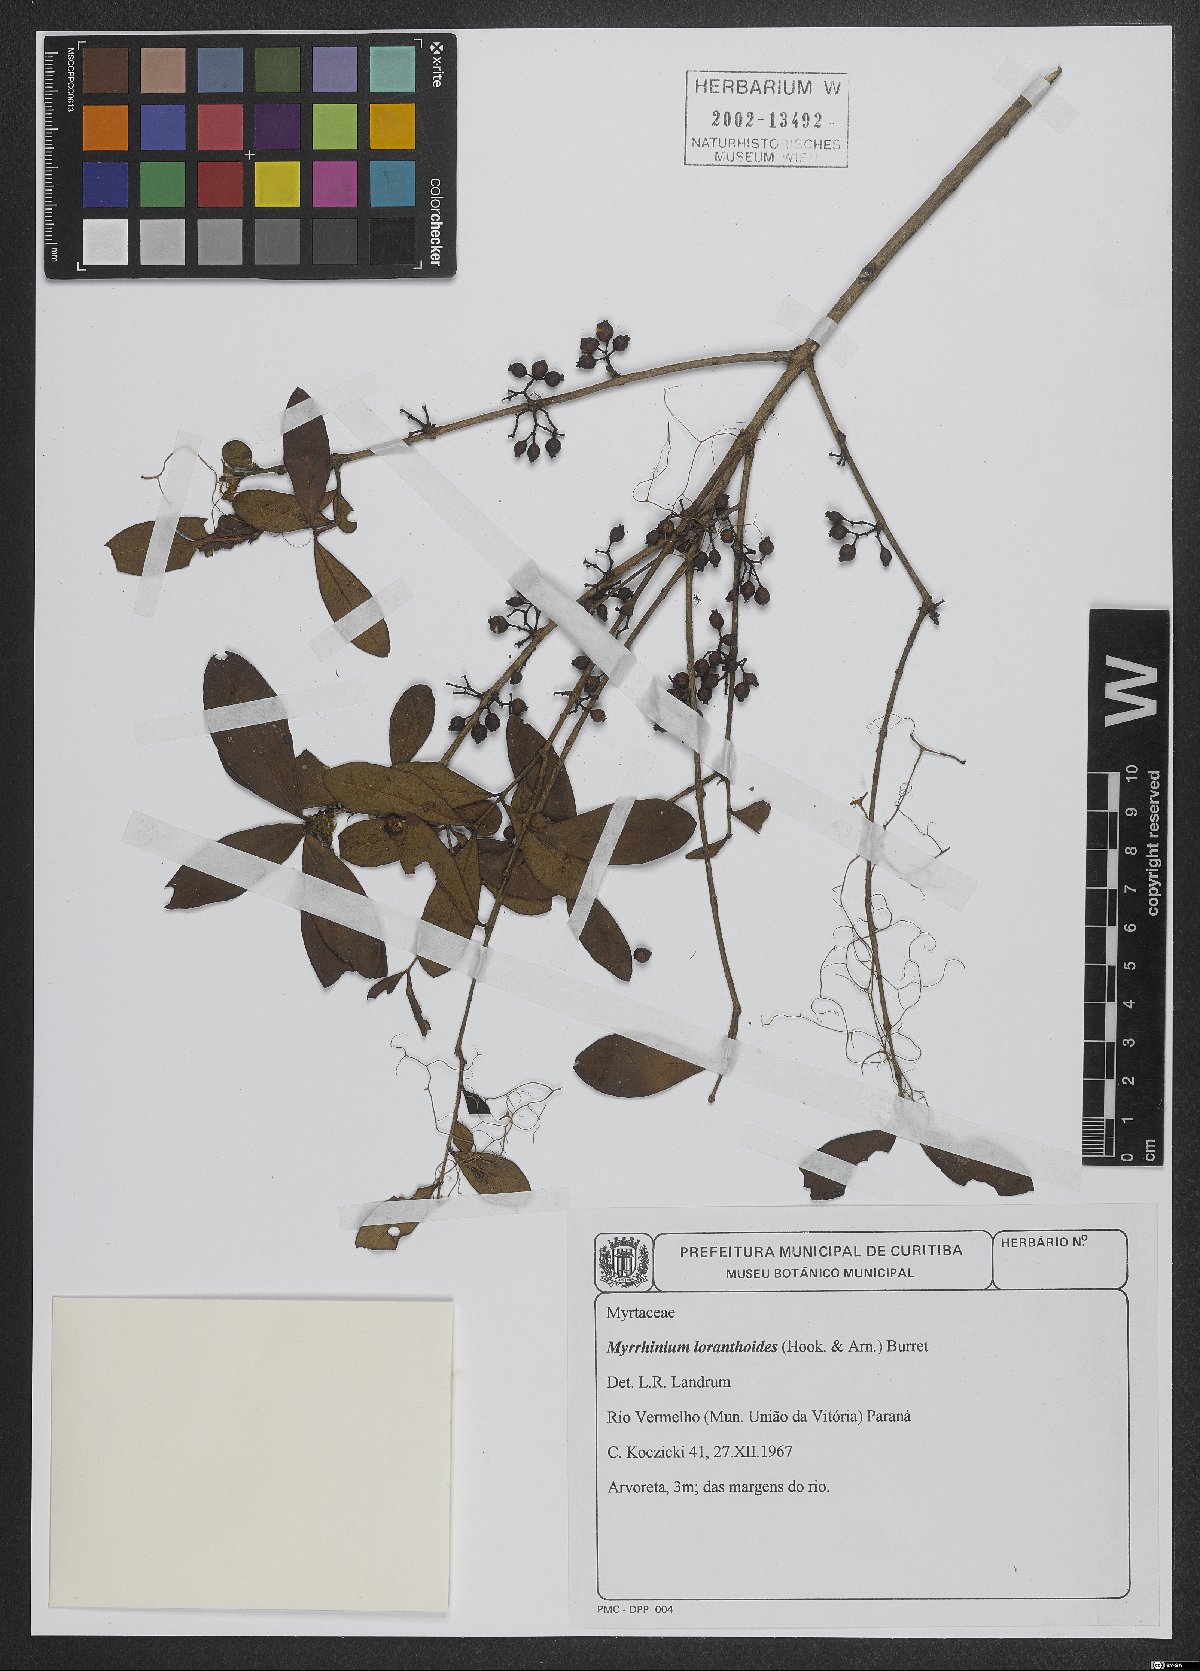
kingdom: Plantae
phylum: Tracheophyta
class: Magnoliopsida
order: Myrtales
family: Myrtaceae
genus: Myrrhinium
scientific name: Myrrhinium atropurpureum
